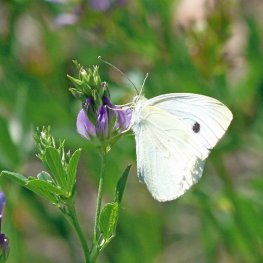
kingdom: Animalia
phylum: Arthropoda
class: Insecta
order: Lepidoptera
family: Pieridae
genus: Pieris
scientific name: Pieris rapae
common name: Cabbage White
